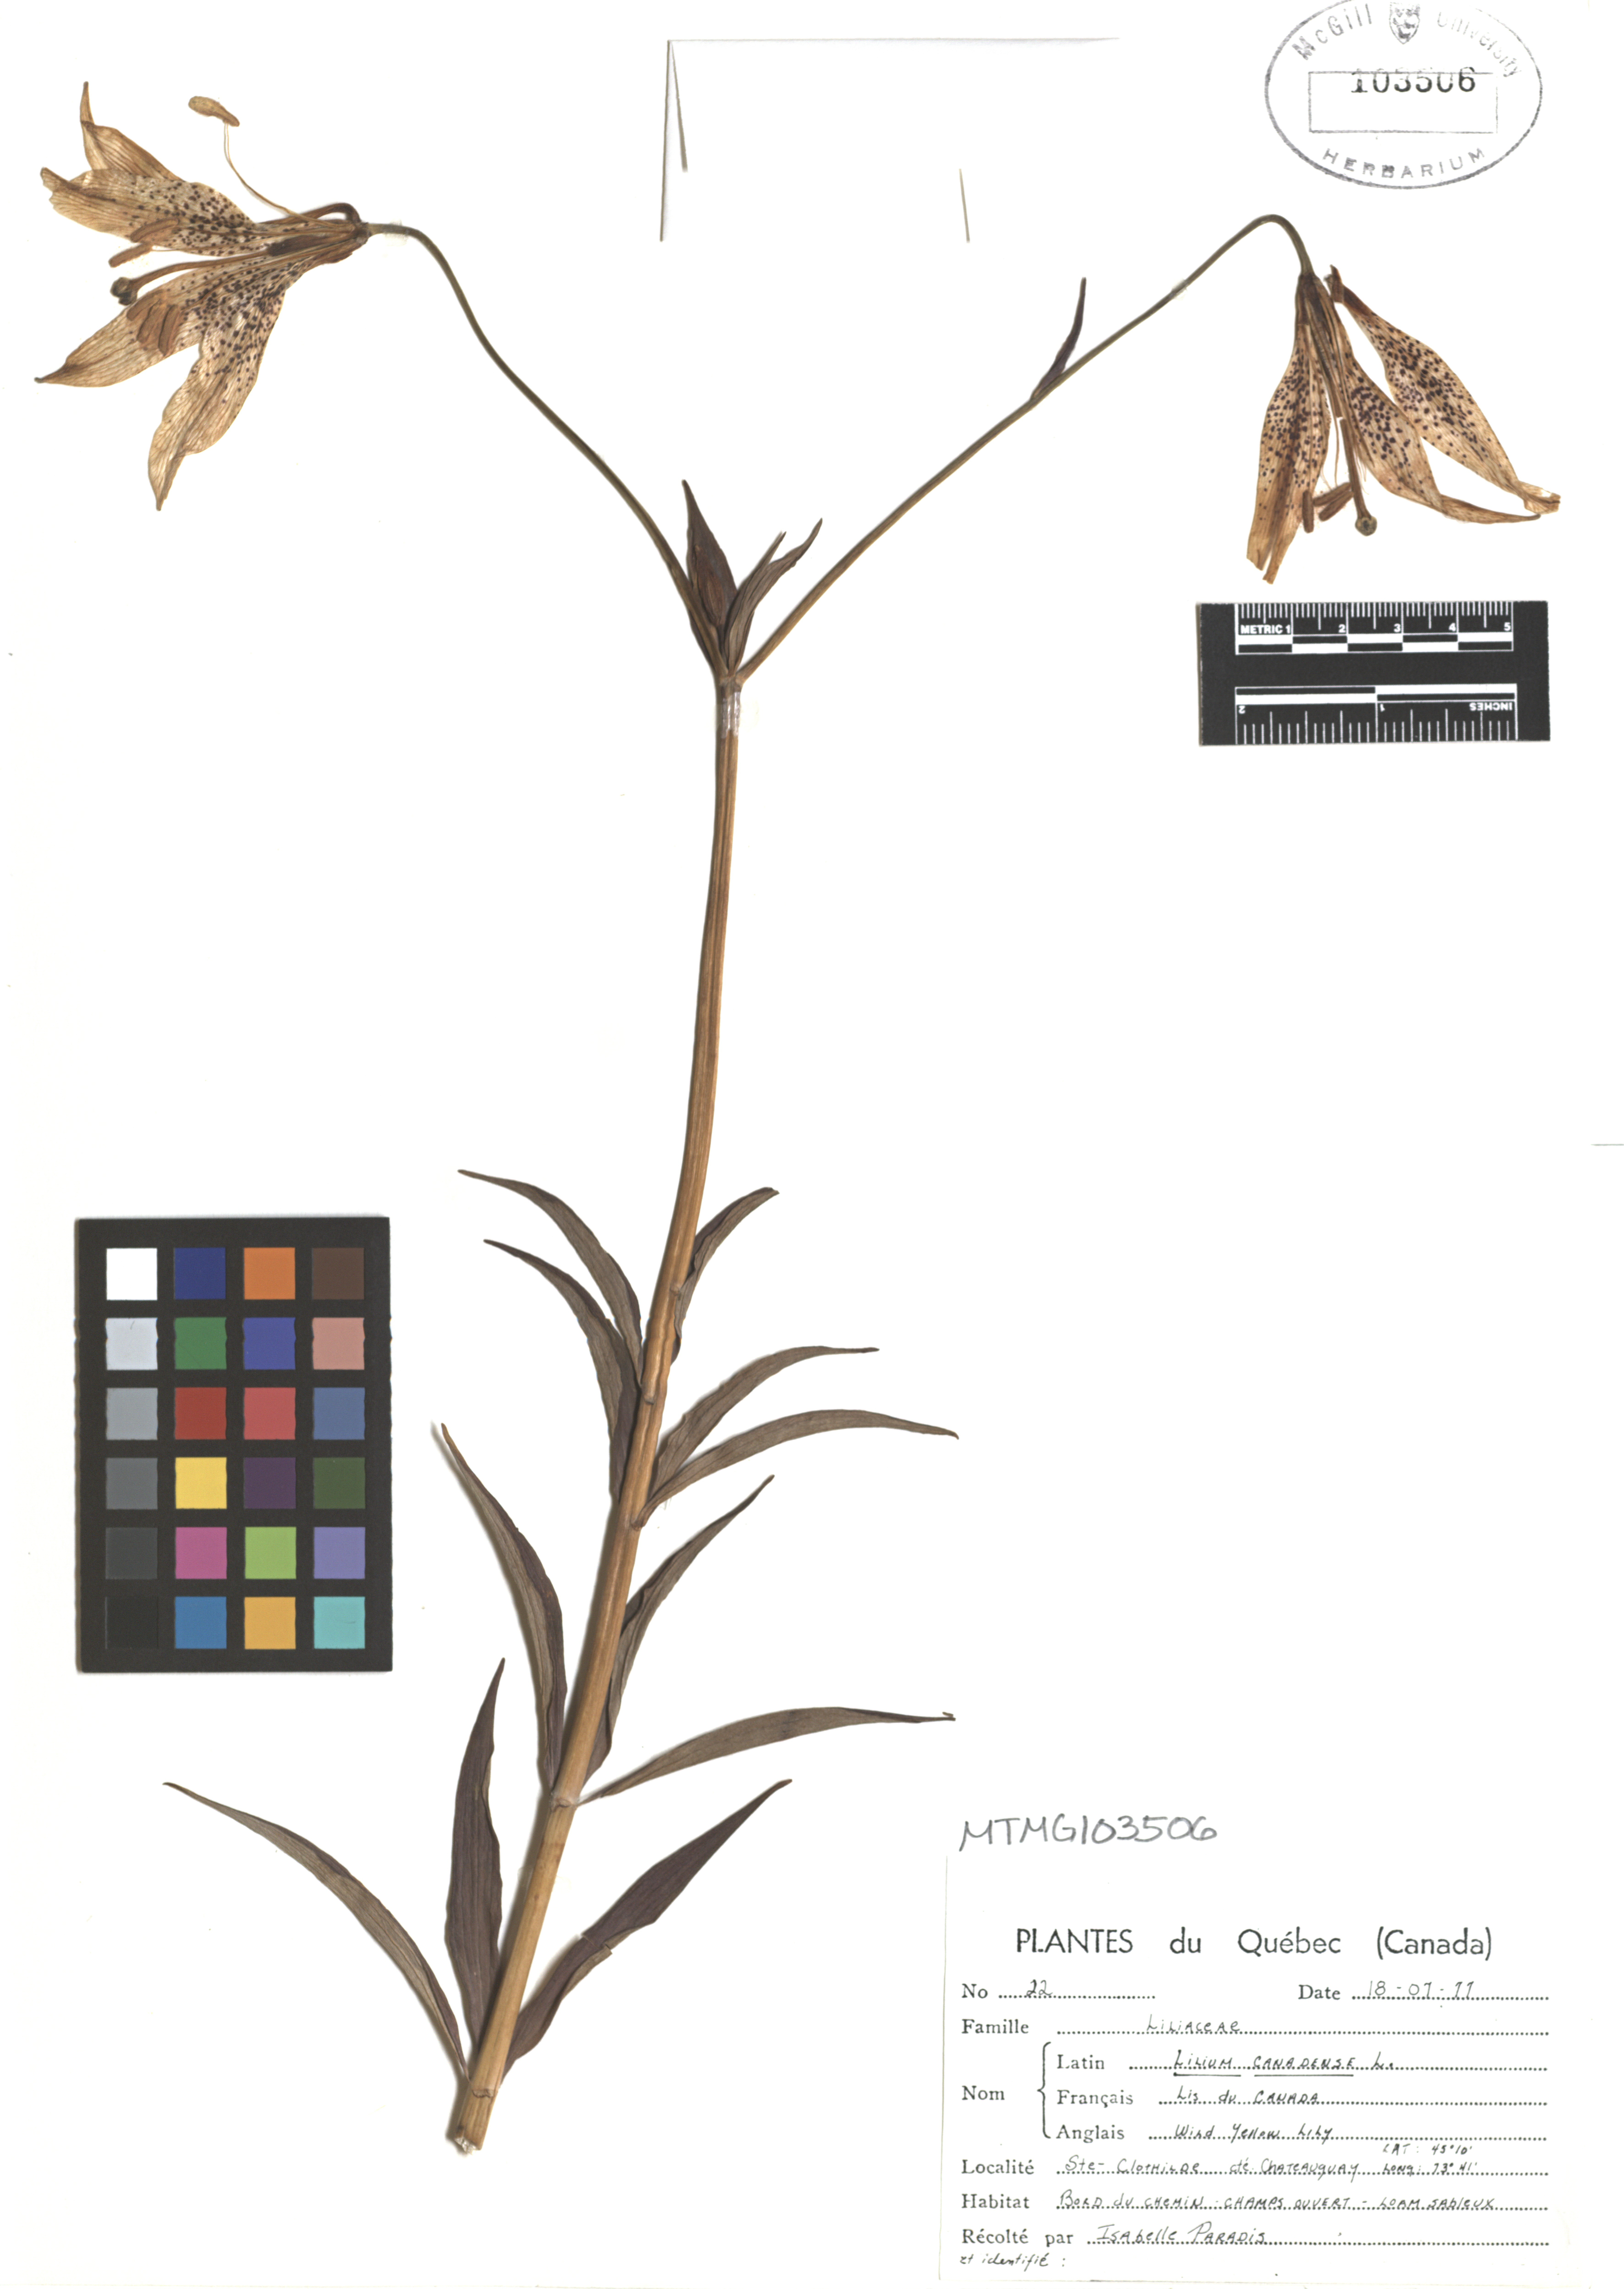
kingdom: Plantae
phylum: Tracheophyta
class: Liliopsida
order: Liliales
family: Liliaceae
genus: Lilium
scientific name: Lilium canadense
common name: Canada lily
